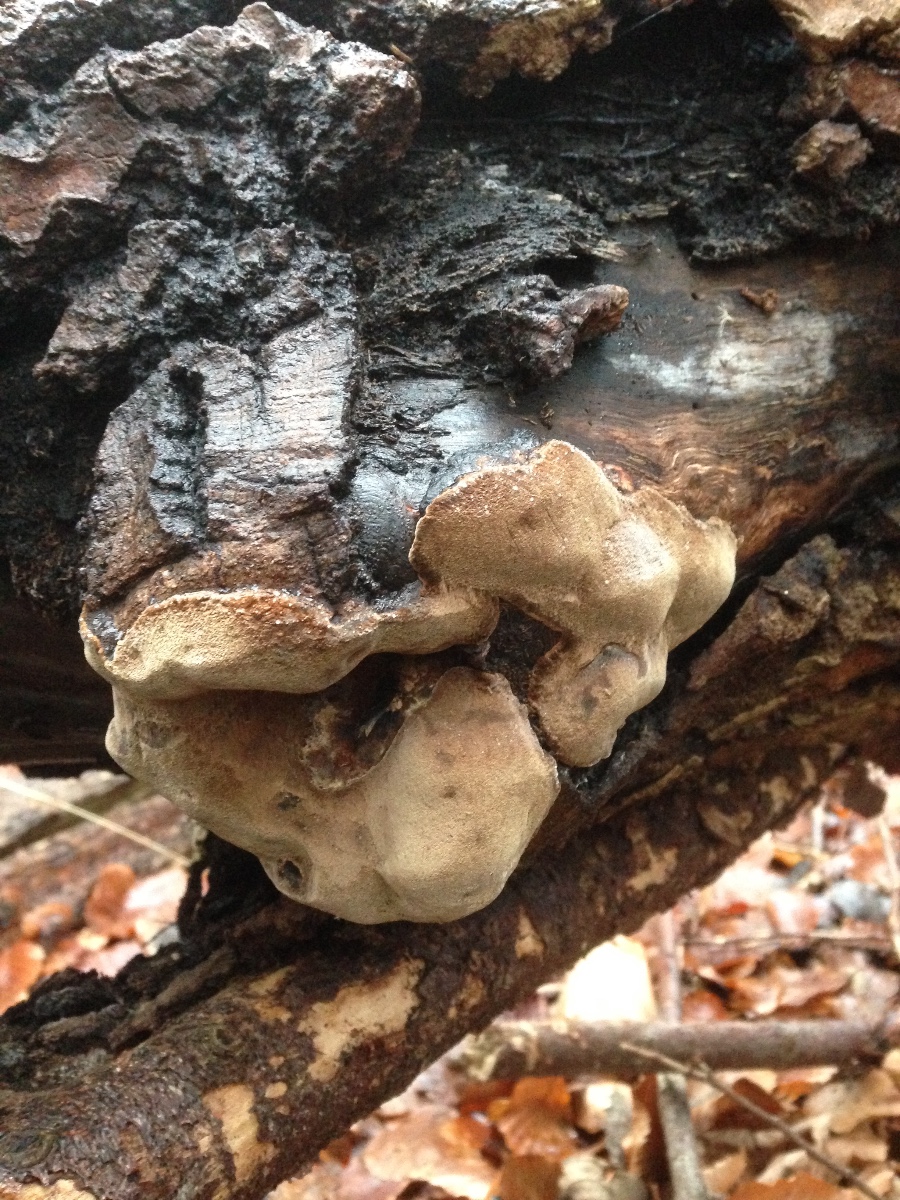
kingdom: Fungi
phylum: Basidiomycota
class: Agaricomycetes
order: Hymenochaetales
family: Hymenochaetaceae
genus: Phellinus
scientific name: Phellinus
